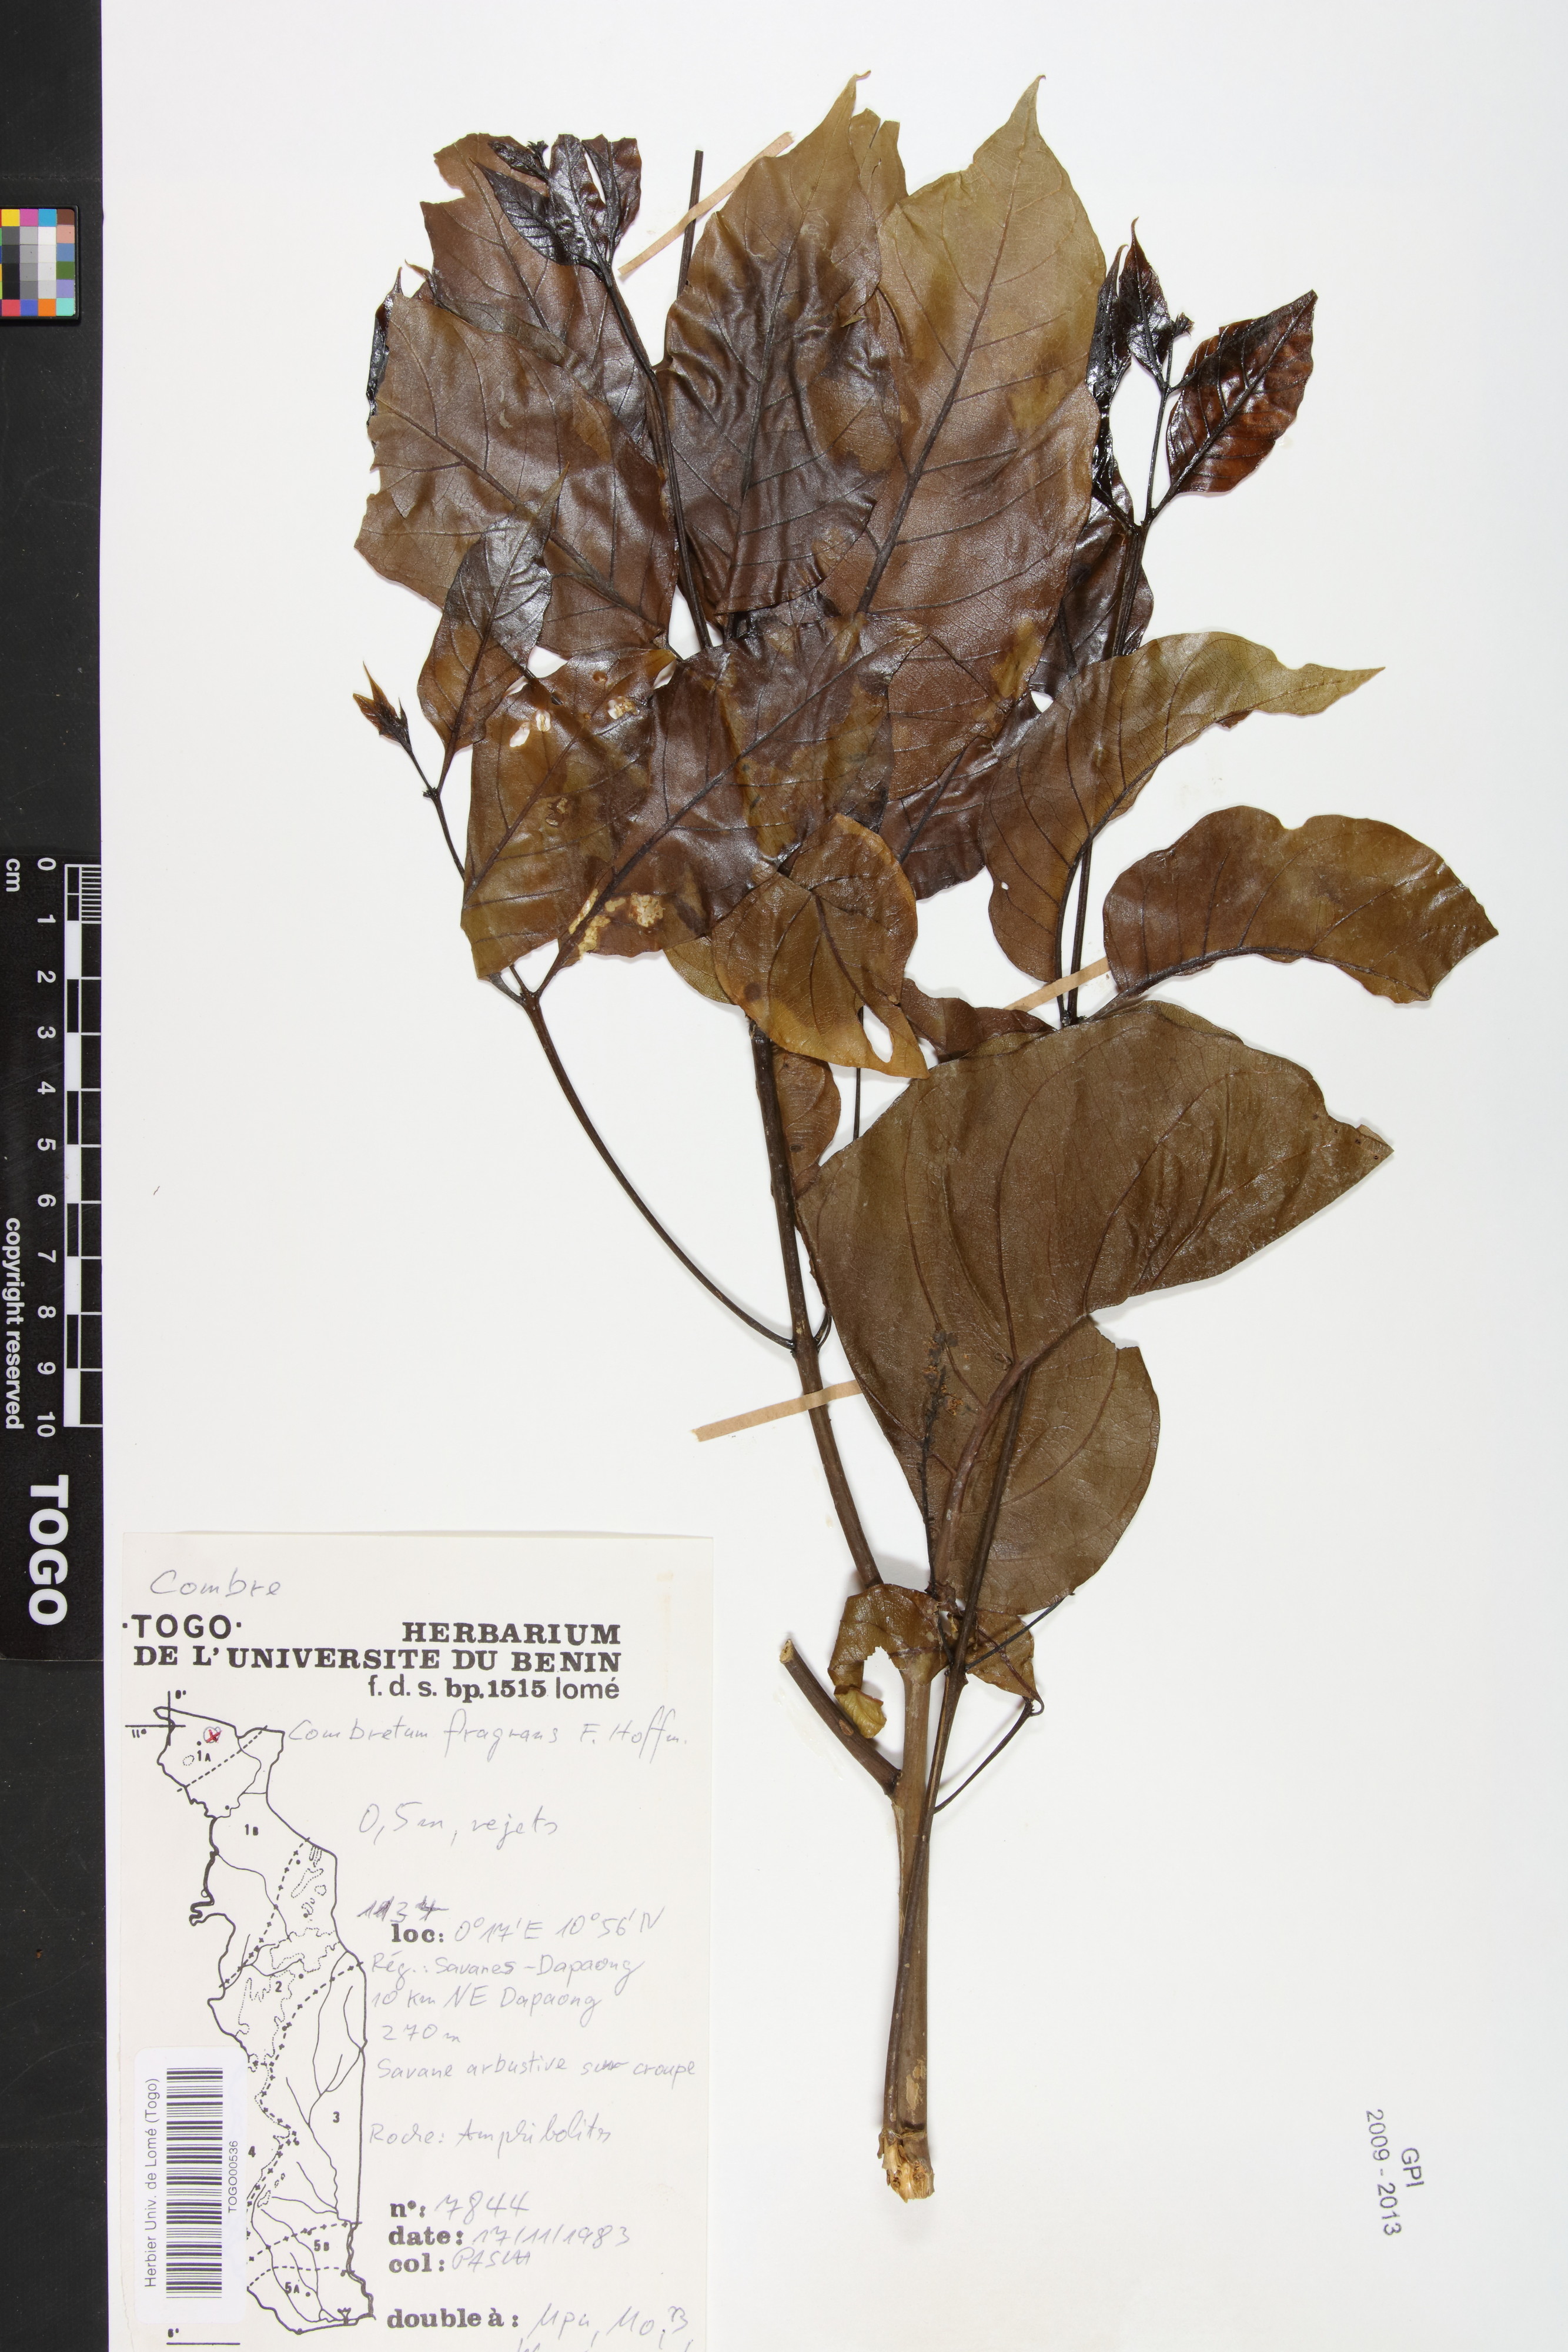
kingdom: Plantae
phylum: Tracheophyta
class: Magnoliopsida
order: Myrtales
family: Combretaceae
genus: Combretum
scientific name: Combretum adenogonium
